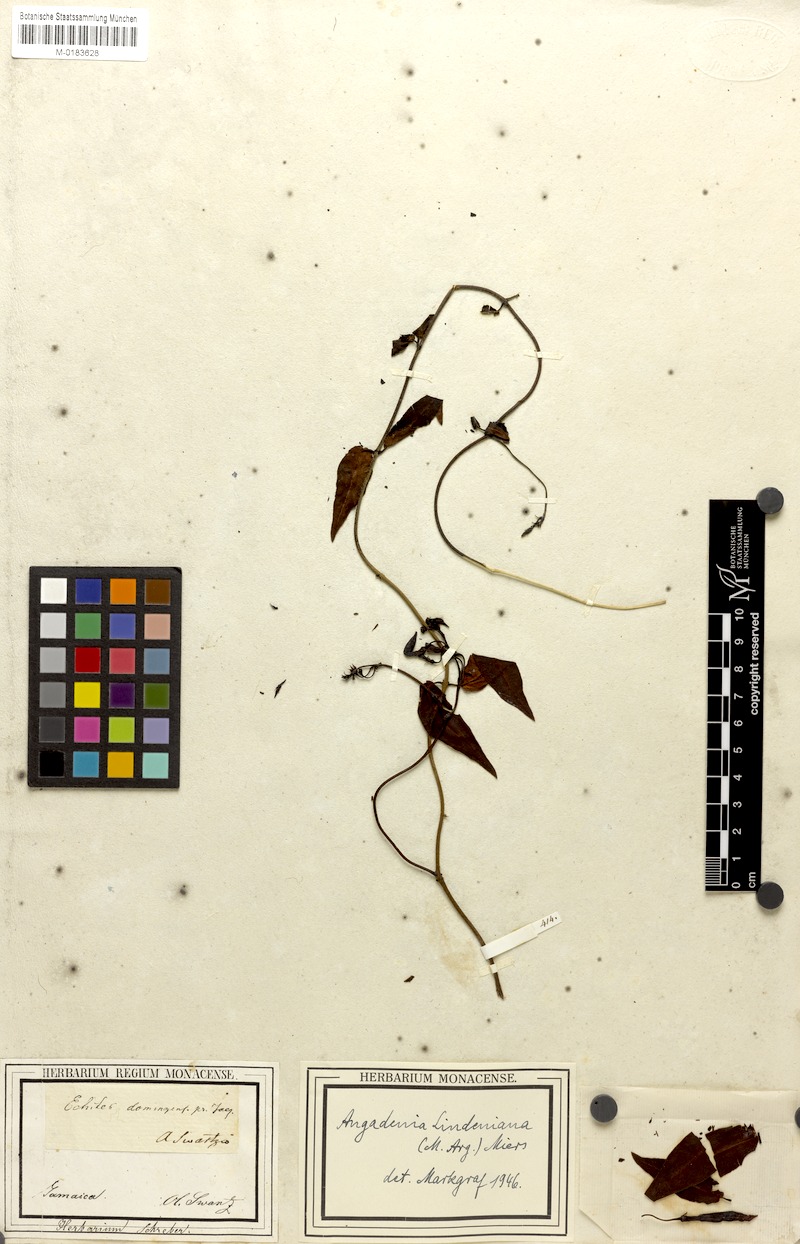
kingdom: Plantae
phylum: Tracheophyta
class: Magnoliopsida
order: Gentianales
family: Apocynaceae
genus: Angadenia
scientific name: Angadenia lindeniana
